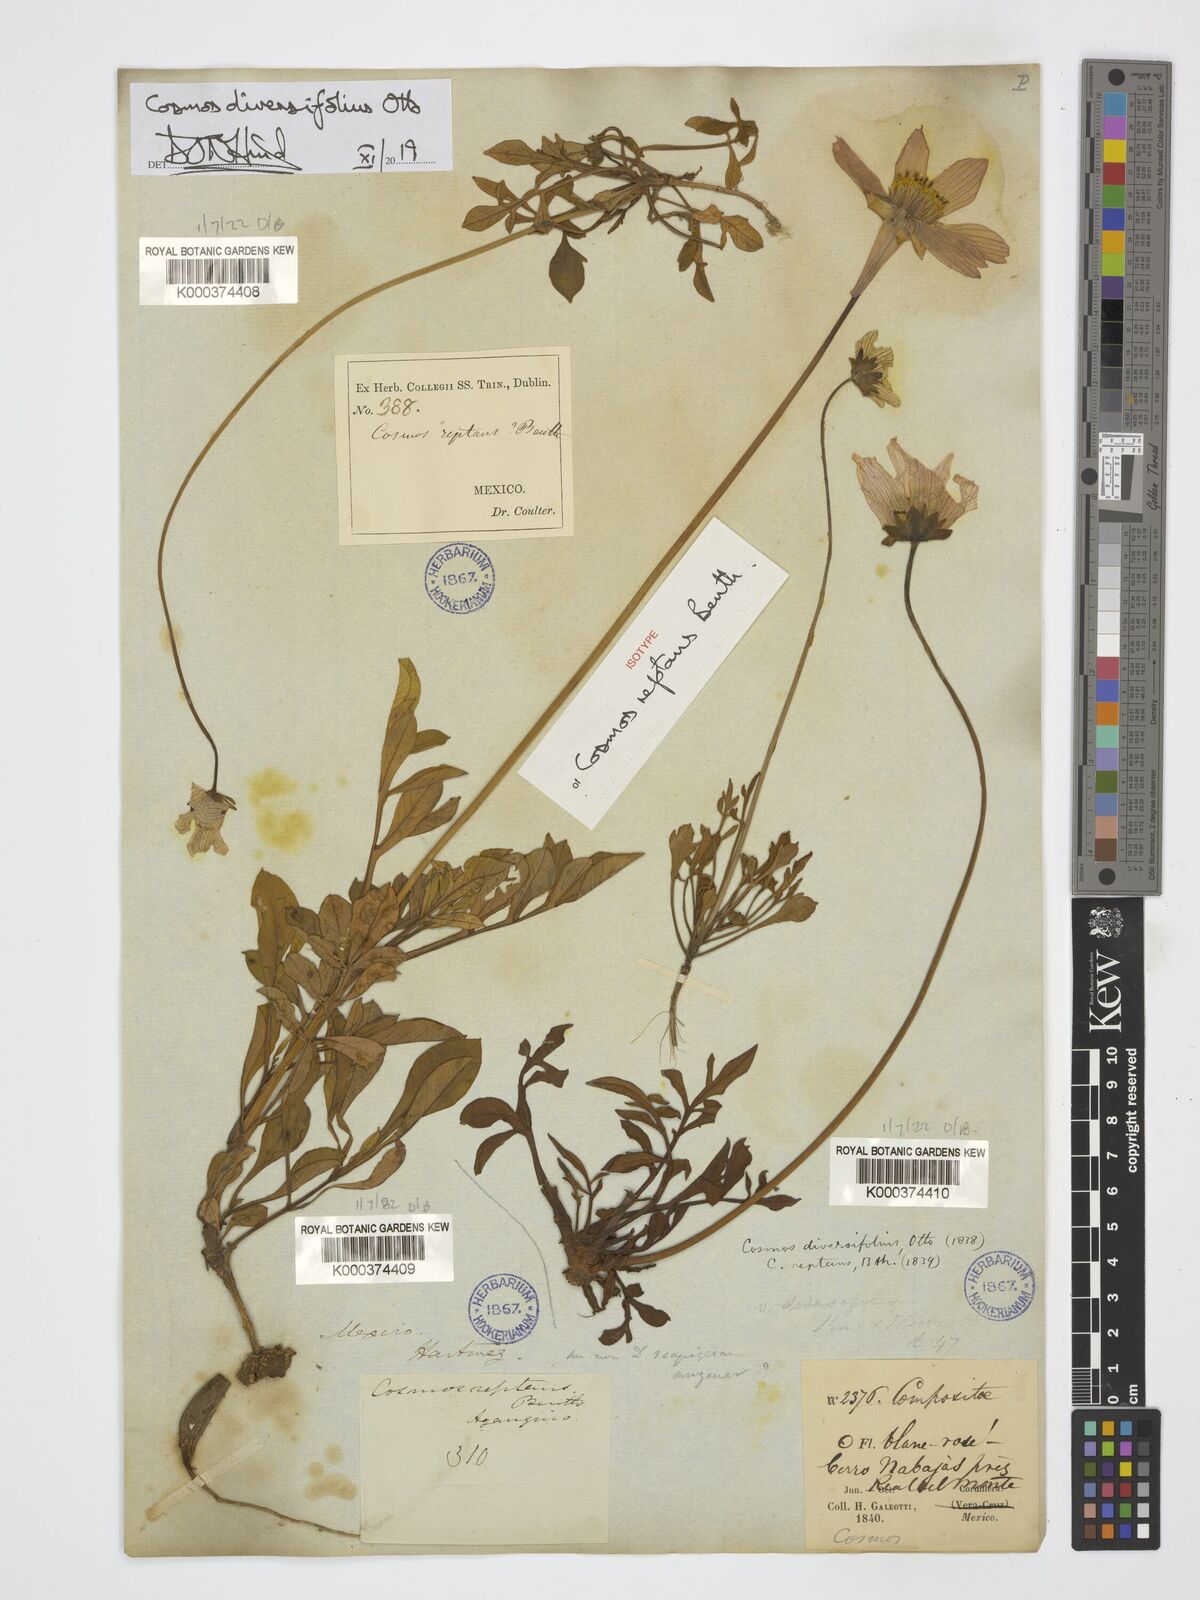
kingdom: Plantae
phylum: Tracheophyta
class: Magnoliopsida
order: Asterales
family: Asteraceae
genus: Cosmos
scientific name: Cosmos diversifolius
